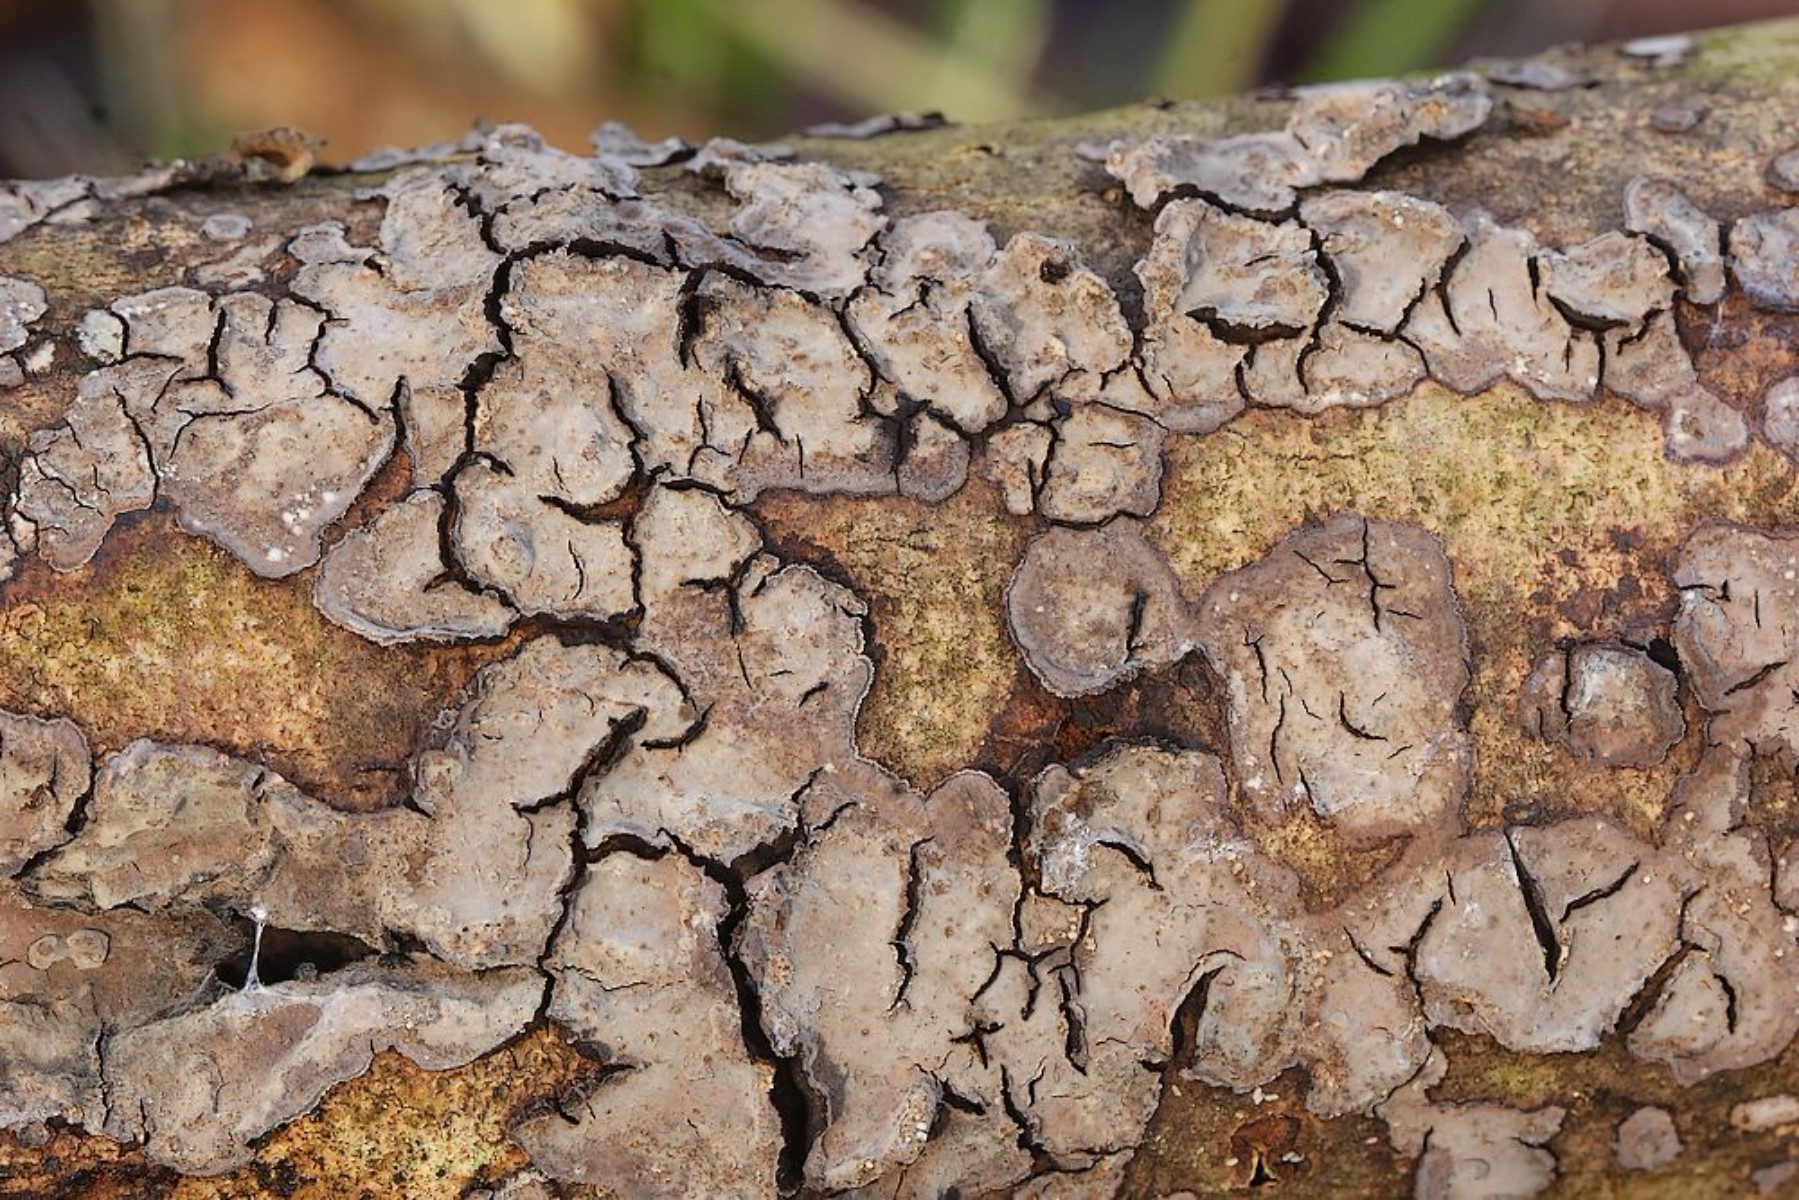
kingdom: Fungi
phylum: Basidiomycota
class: Agaricomycetes
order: Russulales
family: Peniophoraceae
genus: Peniophora
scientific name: Peniophora limitata
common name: mørkrandet voksskind
